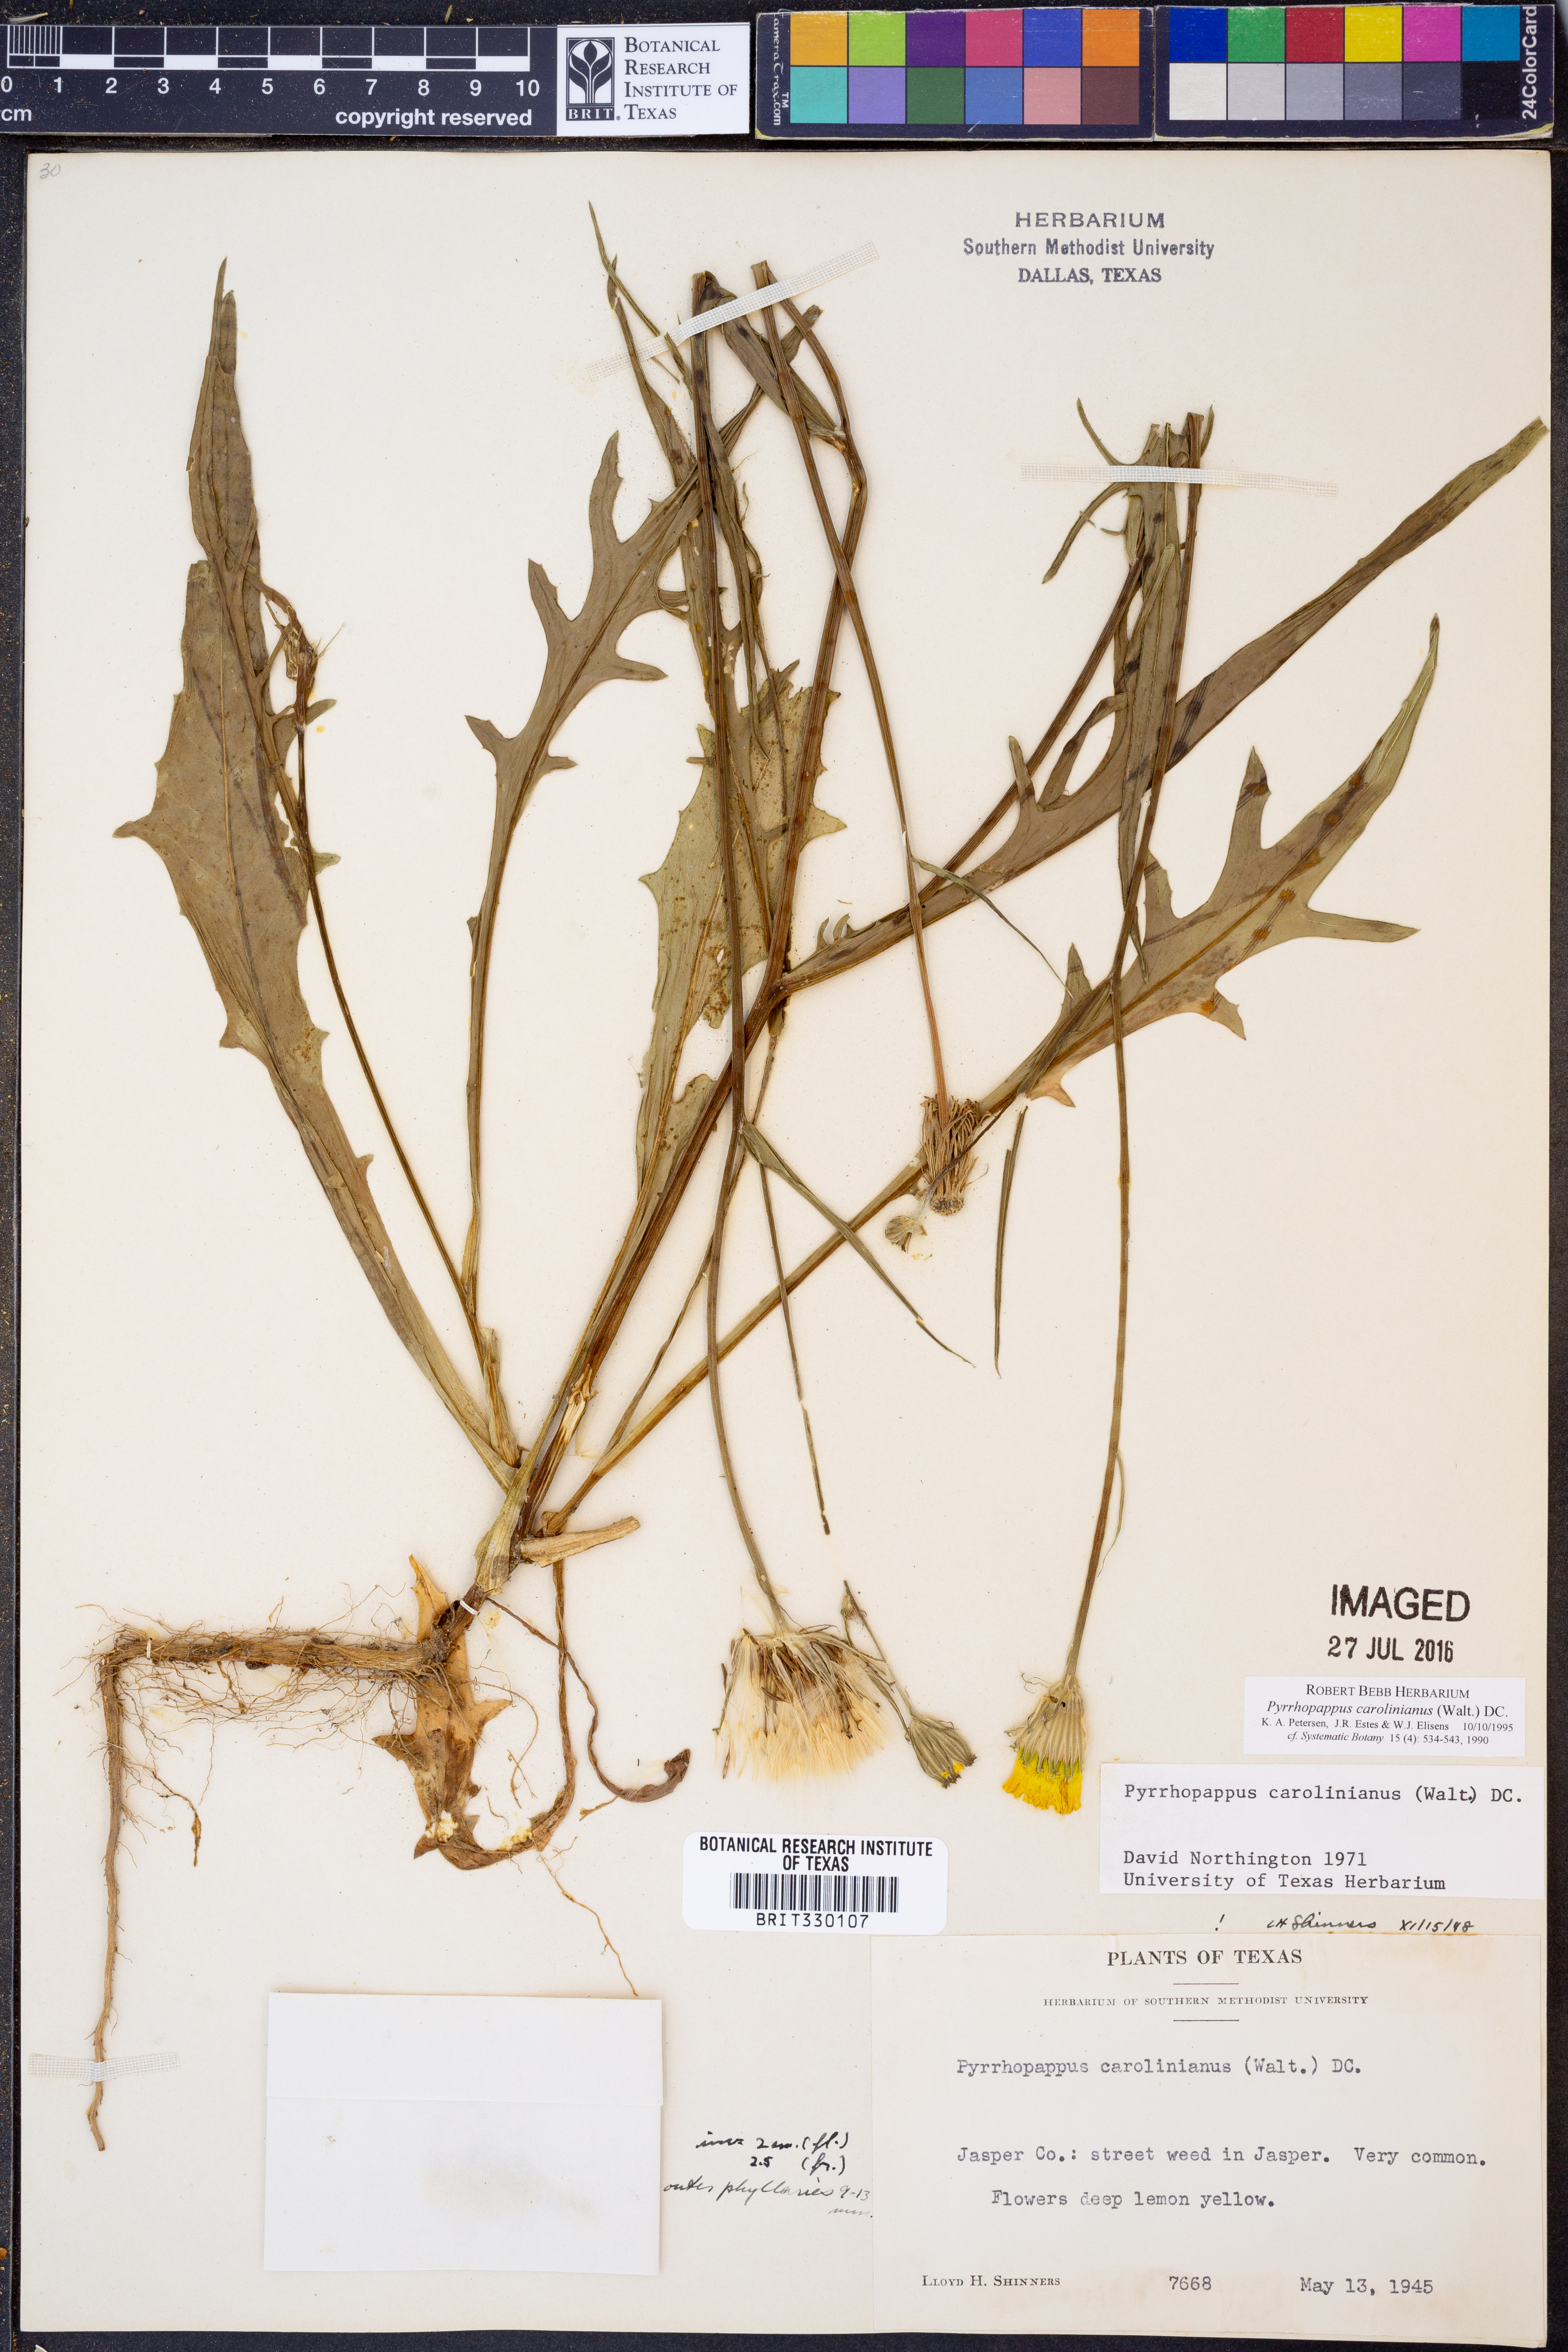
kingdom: Plantae
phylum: Tracheophyta
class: Magnoliopsida
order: Asterales
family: Asteraceae
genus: Pyrrhopappus
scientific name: Pyrrhopappus carolinianus
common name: Carolina desert-chicory
